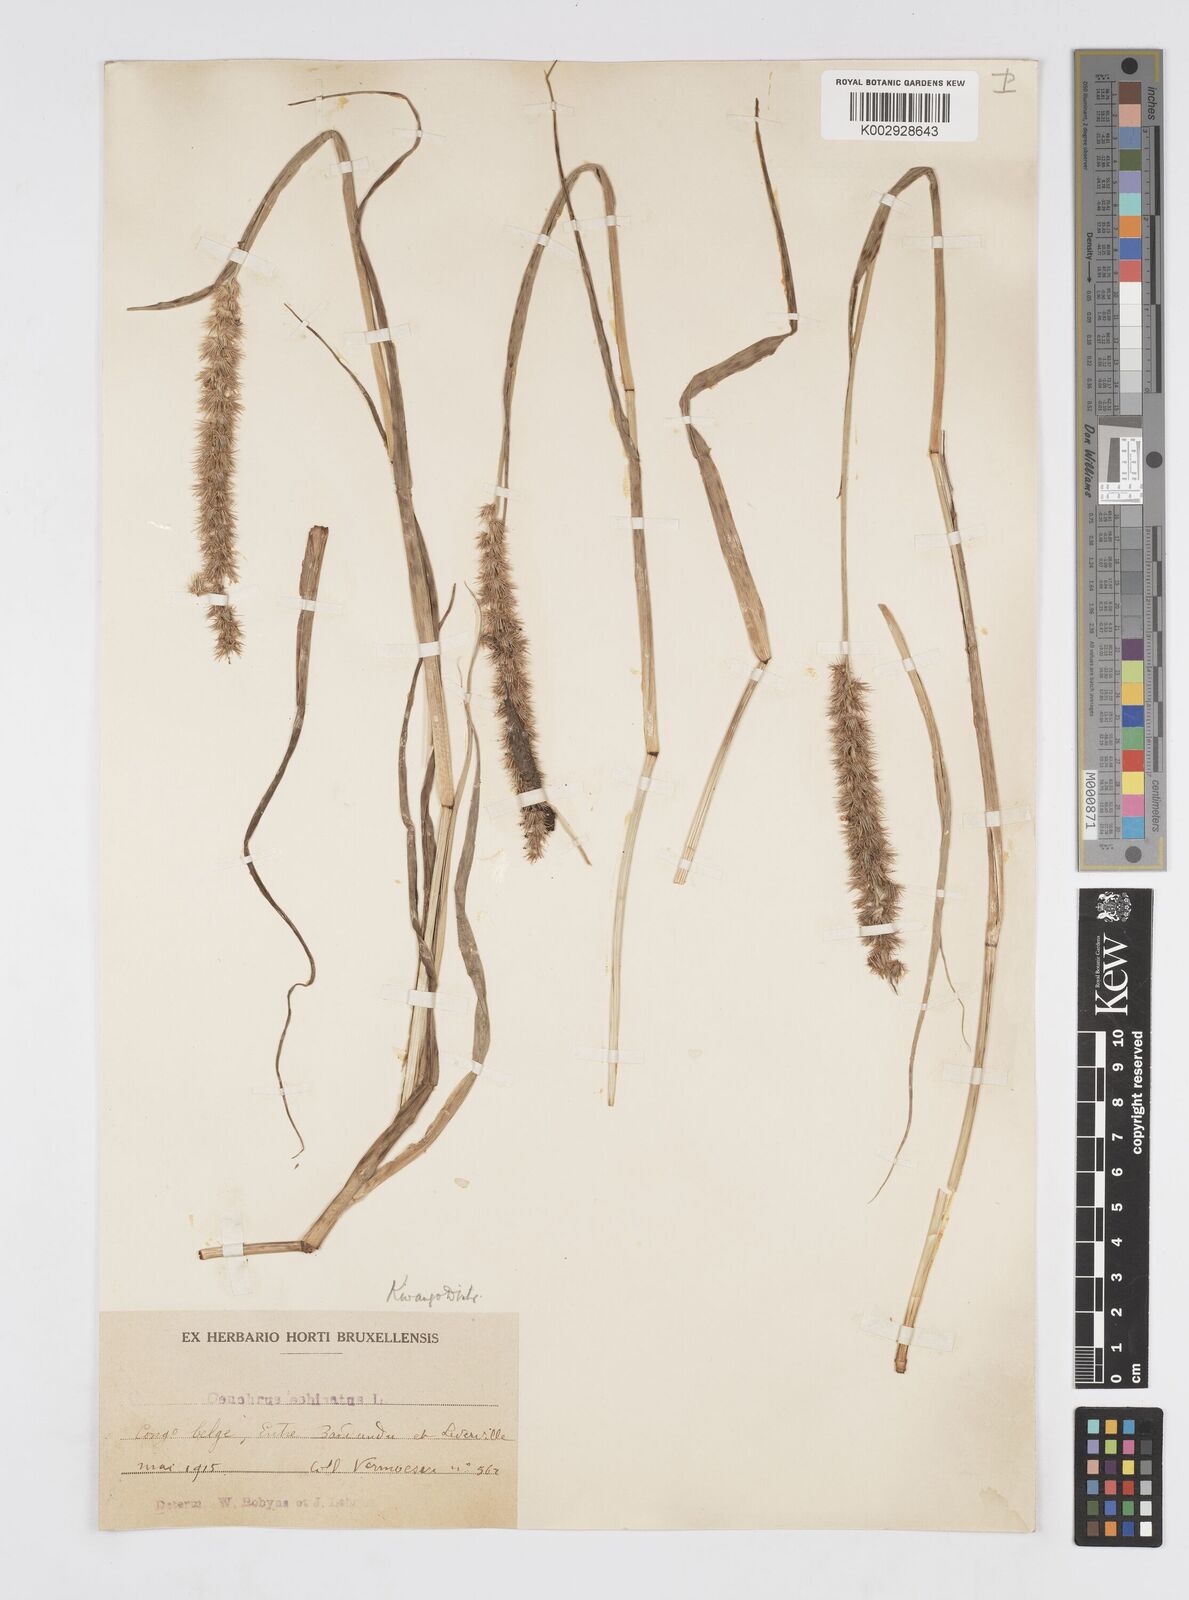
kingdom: Plantae
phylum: Tracheophyta
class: Liliopsida
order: Poales
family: Poaceae
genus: Cenchrus
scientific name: Cenchrus biflorus
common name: Indian sandbur
